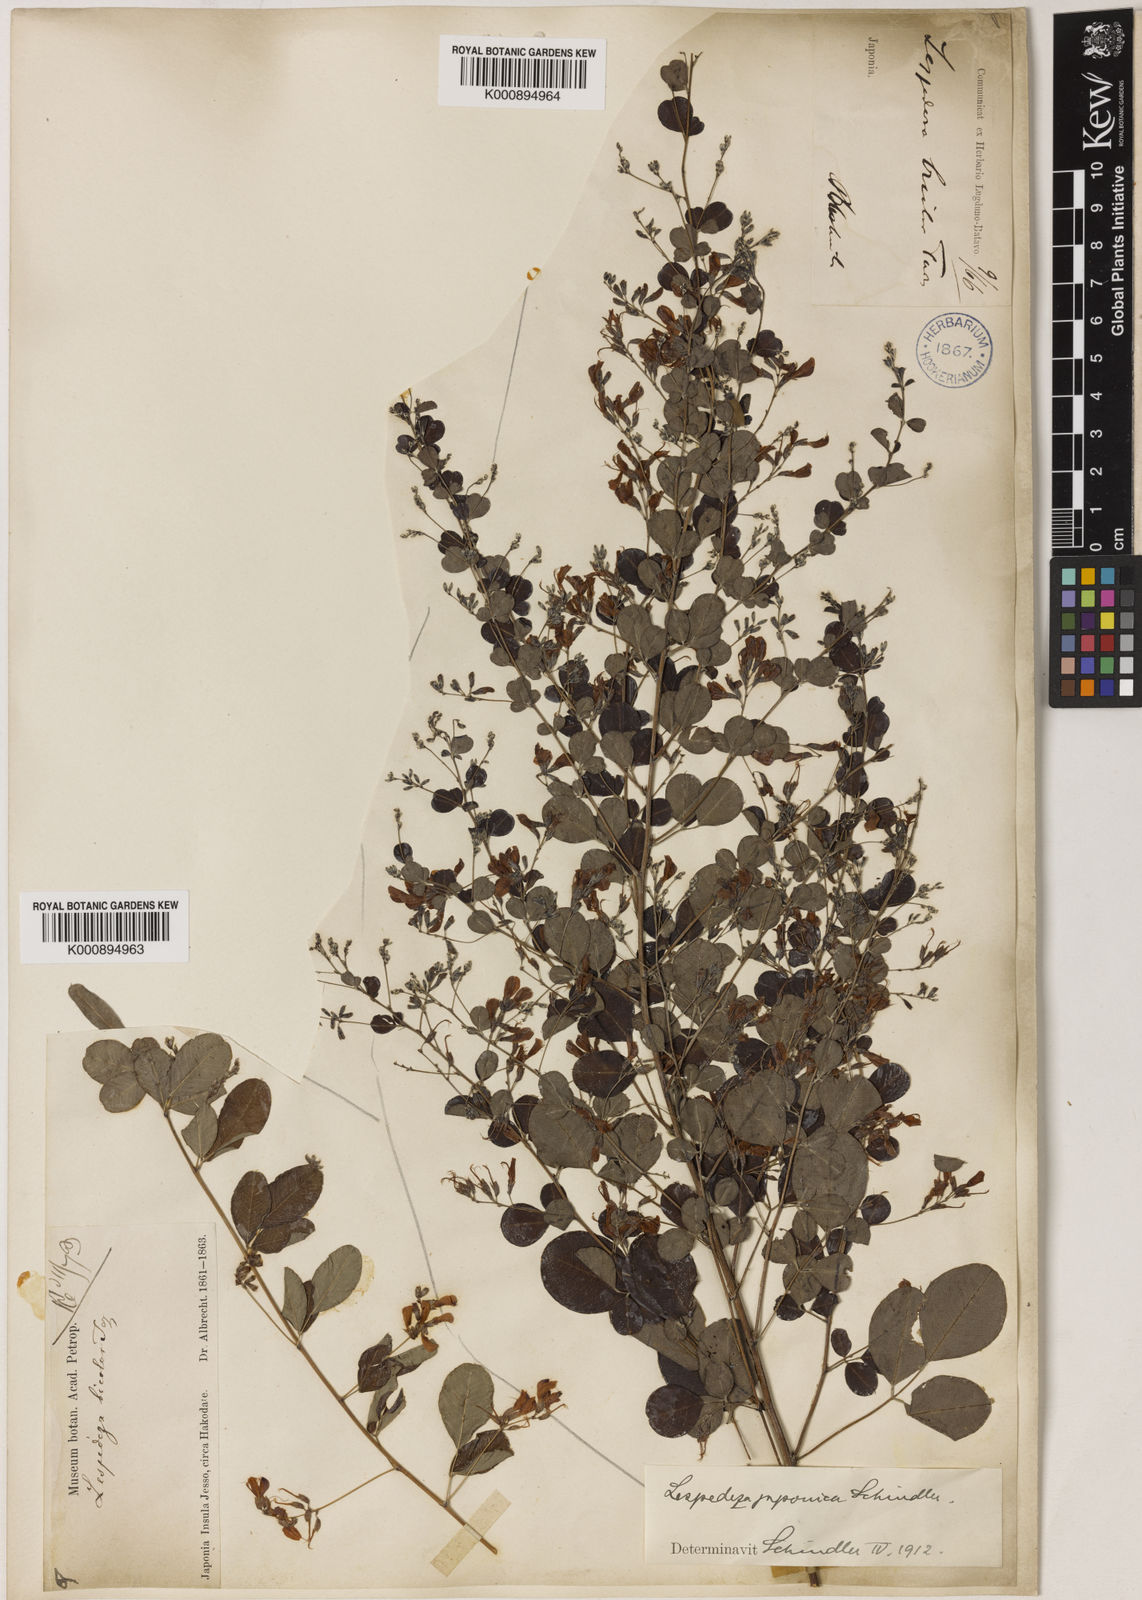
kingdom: Plantae
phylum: Tracheophyta
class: Magnoliopsida
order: Fabales
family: Fabaceae
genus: Lespedeza
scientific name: Lespedeza bicolor
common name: Shrub lespedeza
